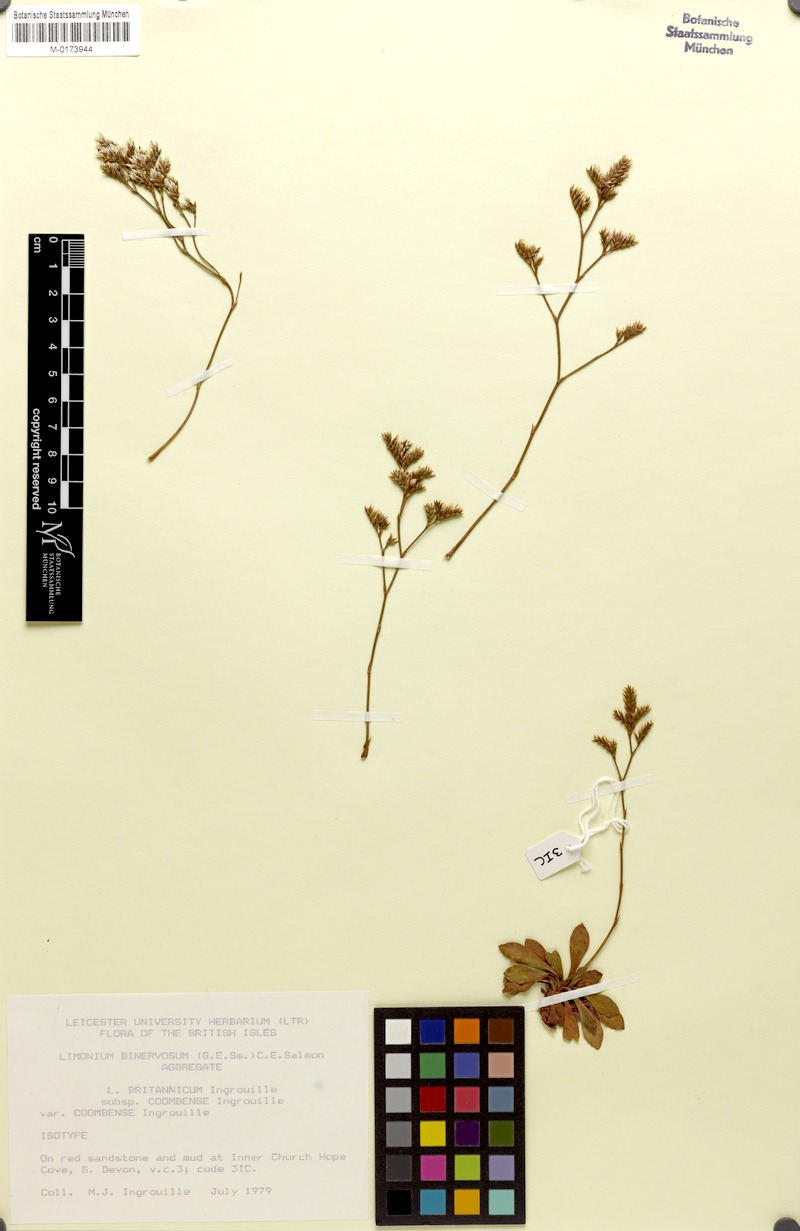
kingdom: Plantae
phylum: Tracheophyta
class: Magnoliopsida
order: Caryophyllales
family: Plumbaginaceae
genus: Limonium
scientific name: Limonium britannicum
